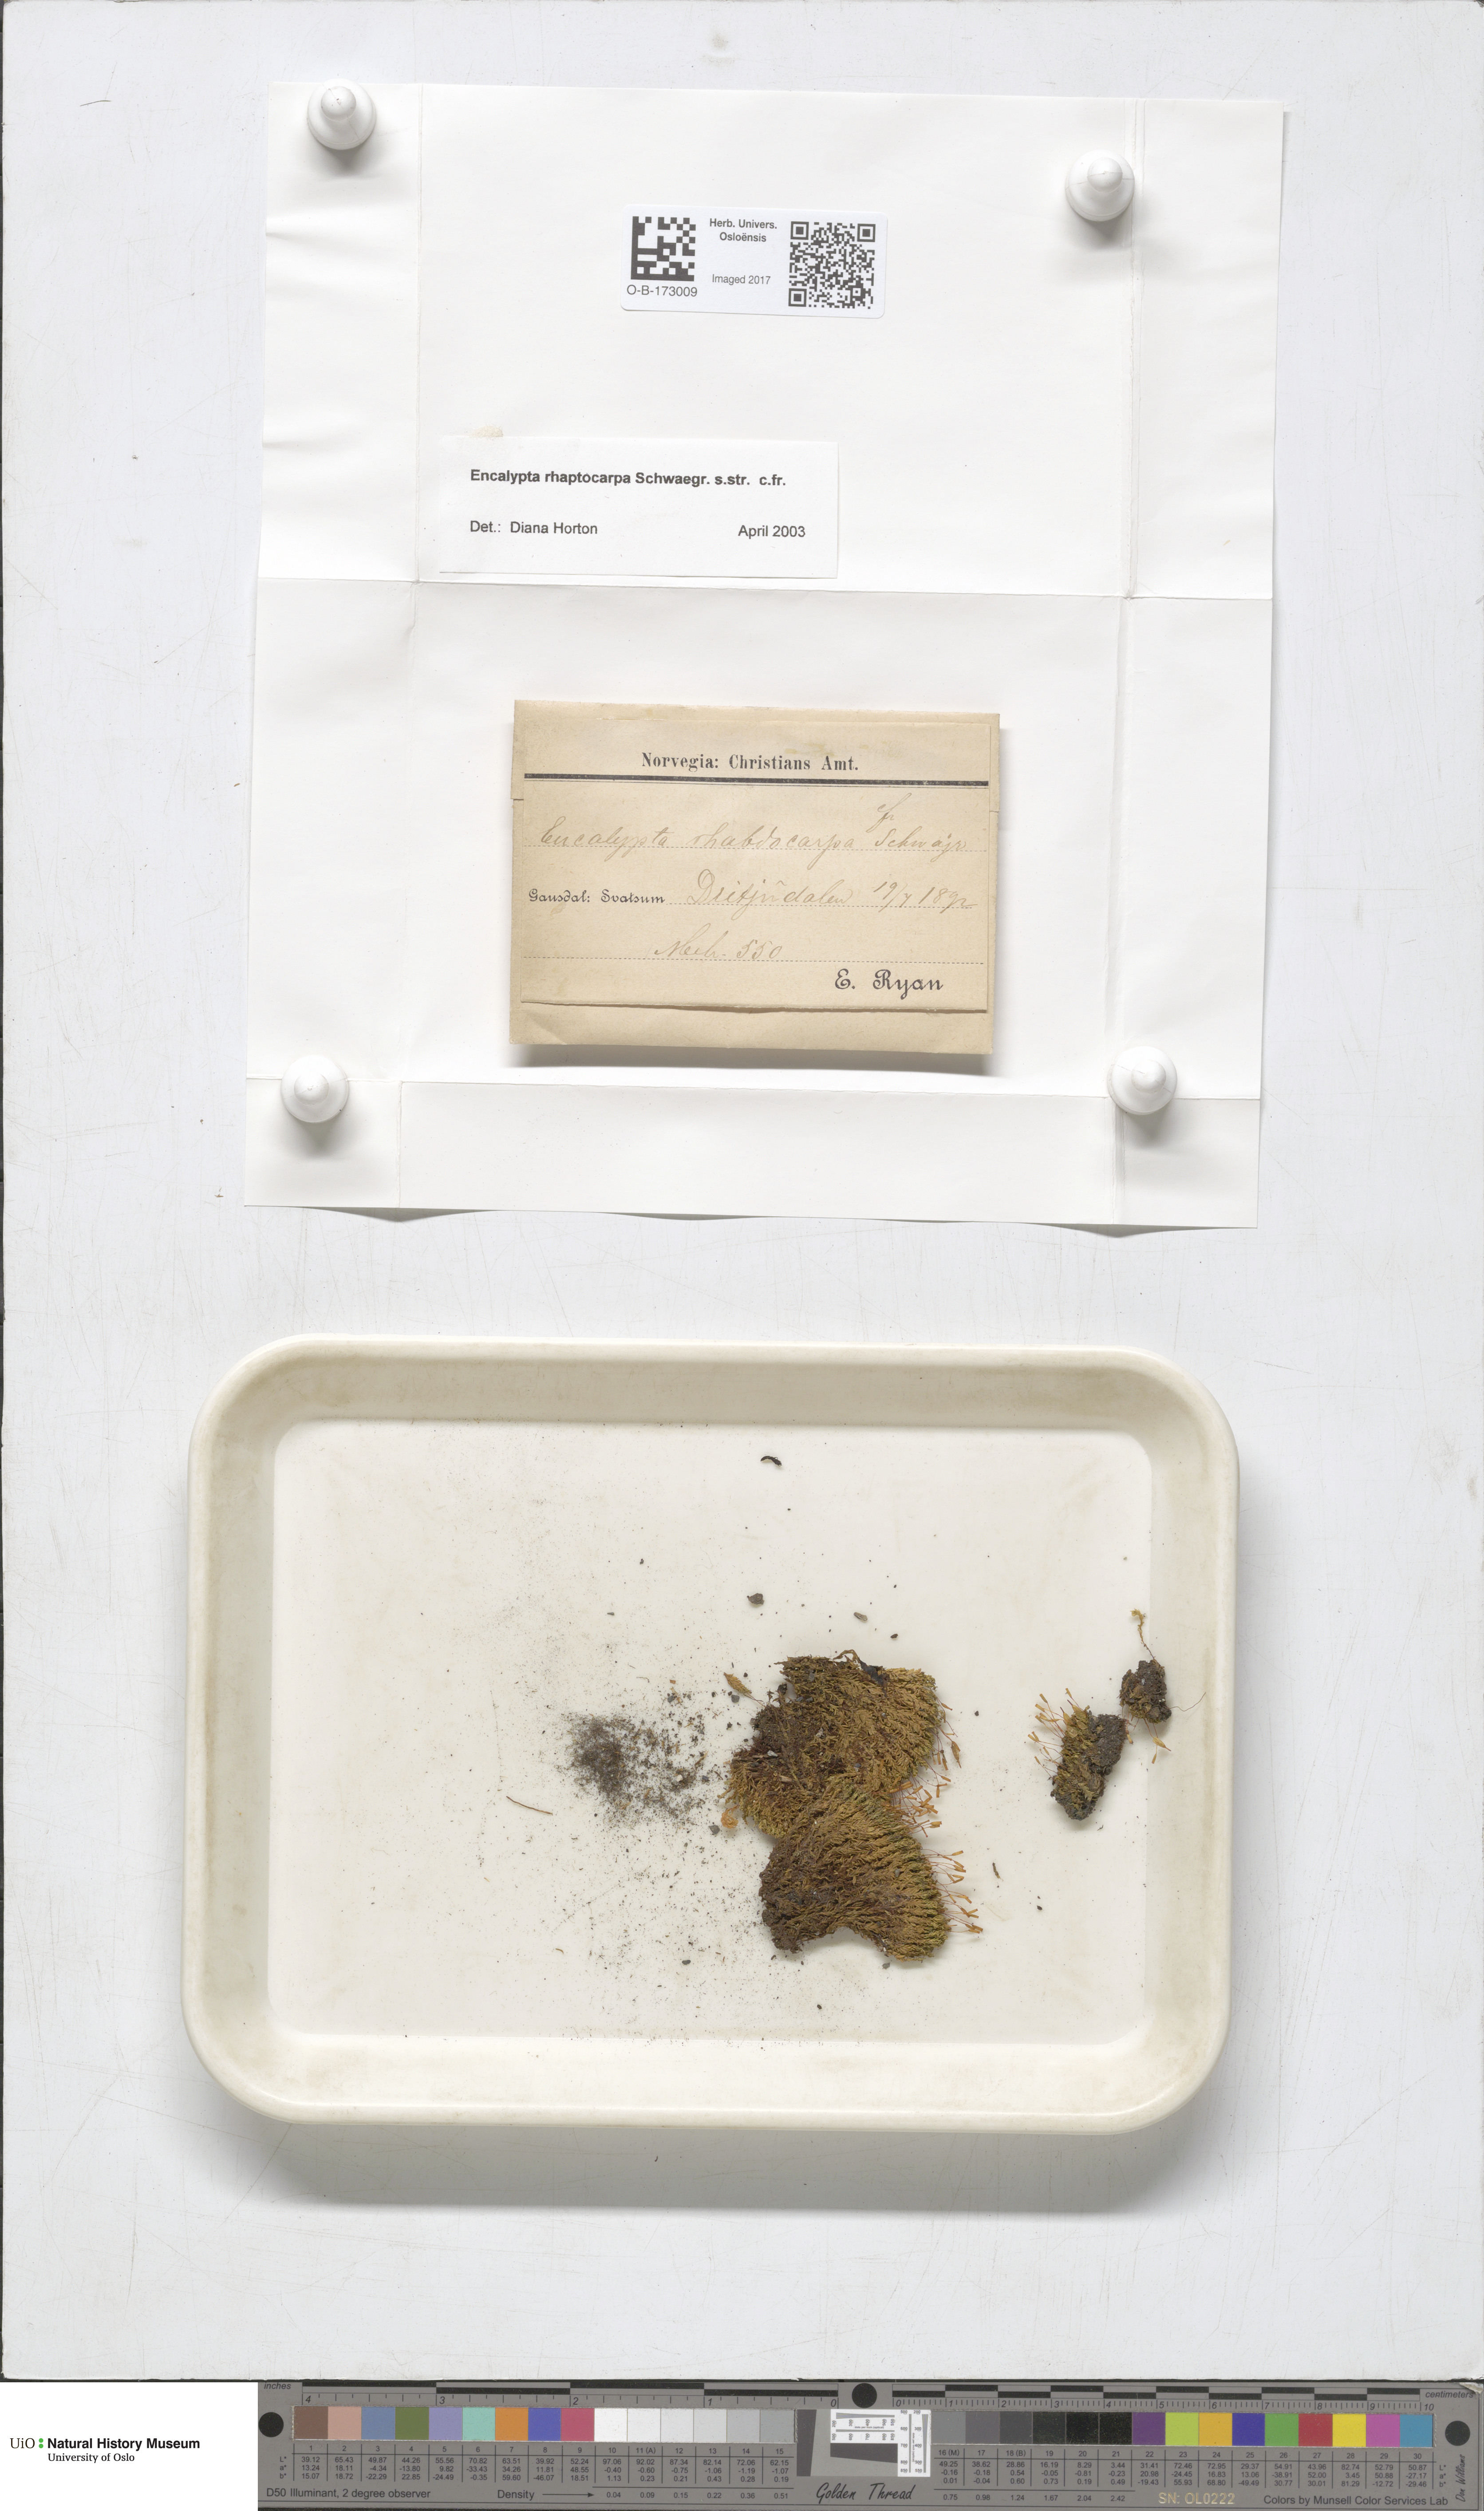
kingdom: Plantae
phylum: Bryophyta
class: Bryopsida
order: Encalyptales
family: Encalyptaceae
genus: Encalypta
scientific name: Encalypta rhaptocarpa
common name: Ribbed extinguisher moss
